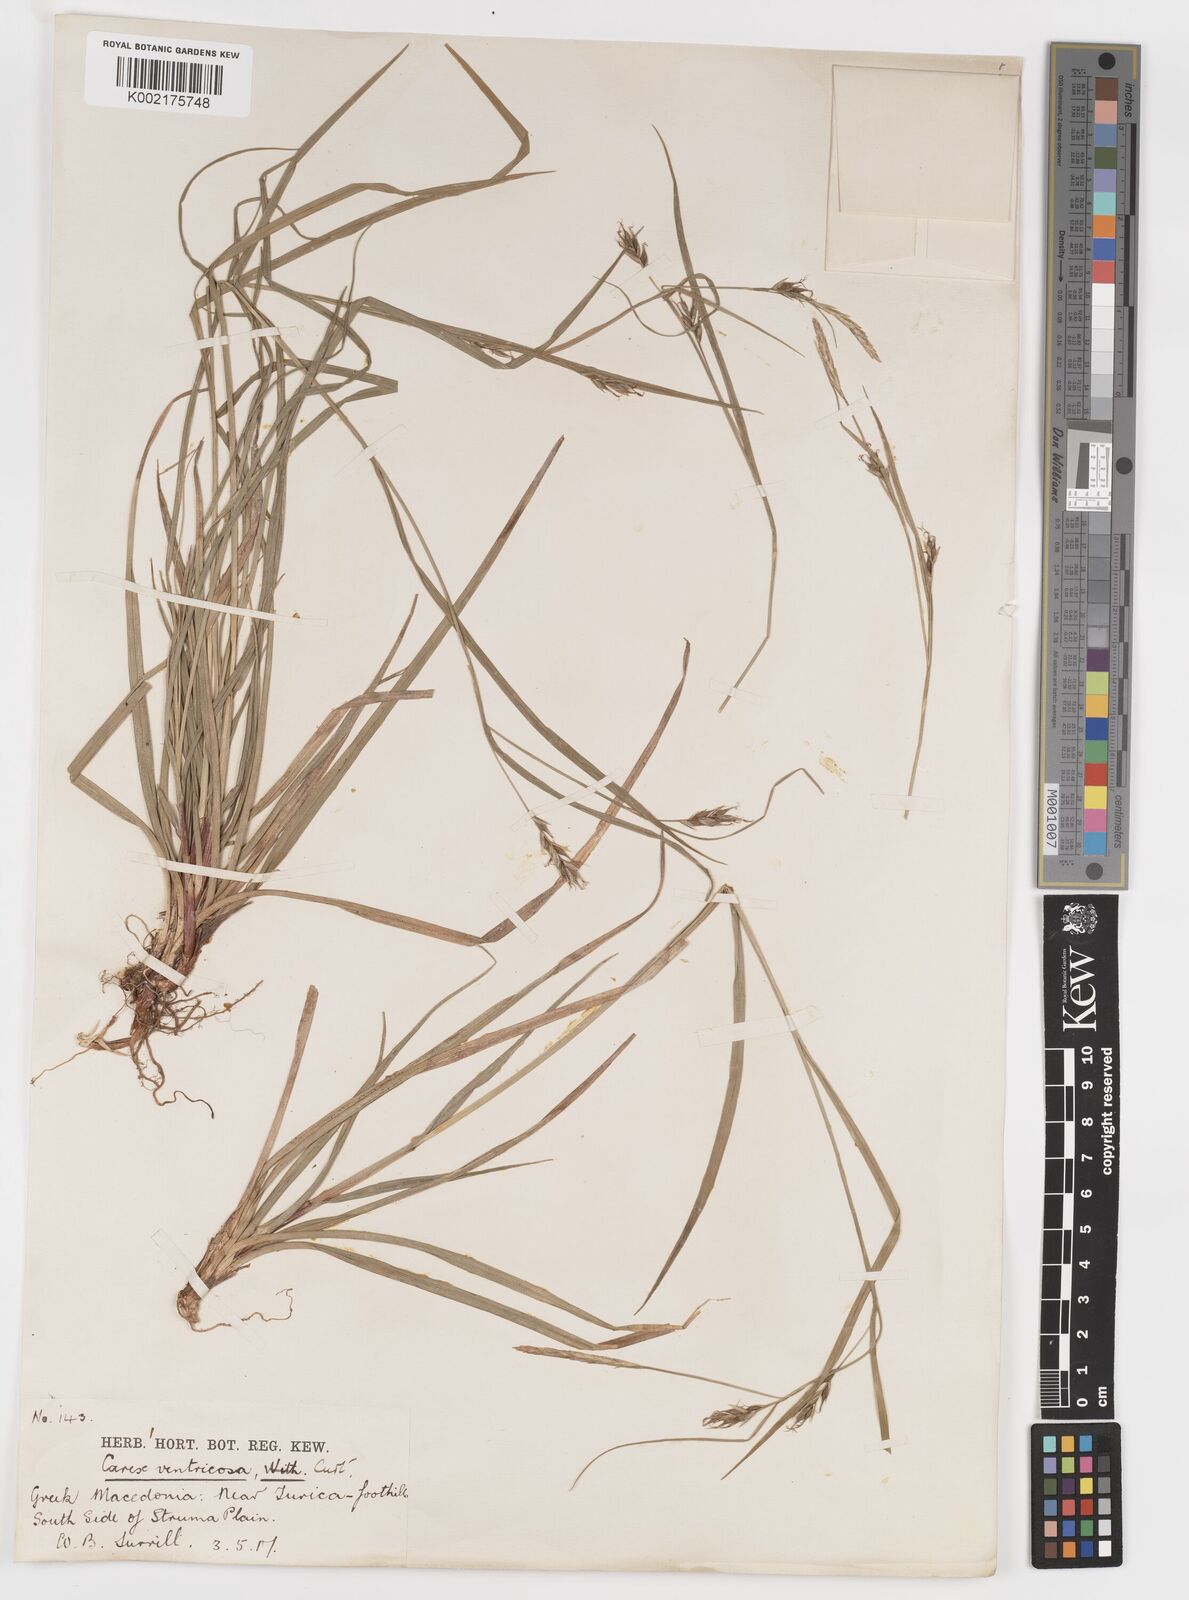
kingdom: Plantae
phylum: Tracheophyta
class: Liliopsida
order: Poales
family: Cyperaceae
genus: Carex
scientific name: Carex
